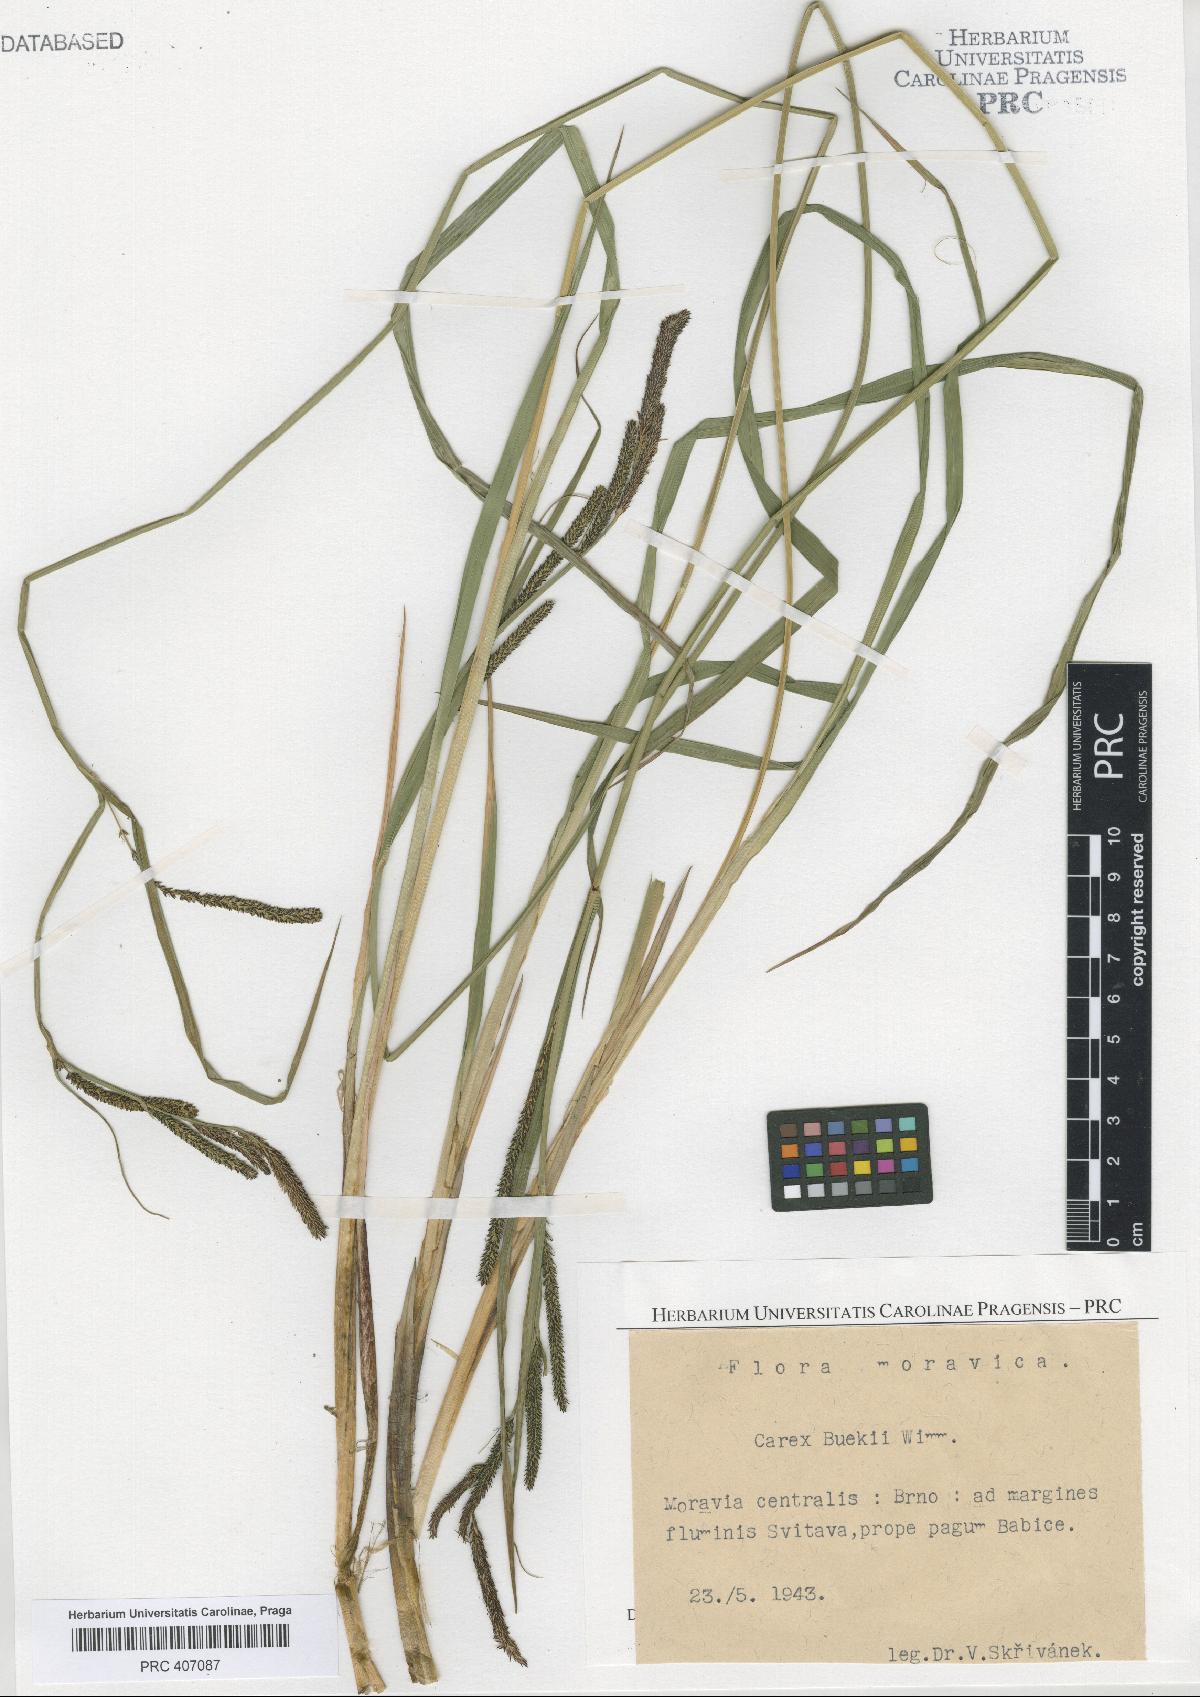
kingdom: Plantae
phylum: Tracheophyta
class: Liliopsida
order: Poales
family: Cyperaceae
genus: Carex
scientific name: Carex buekii
